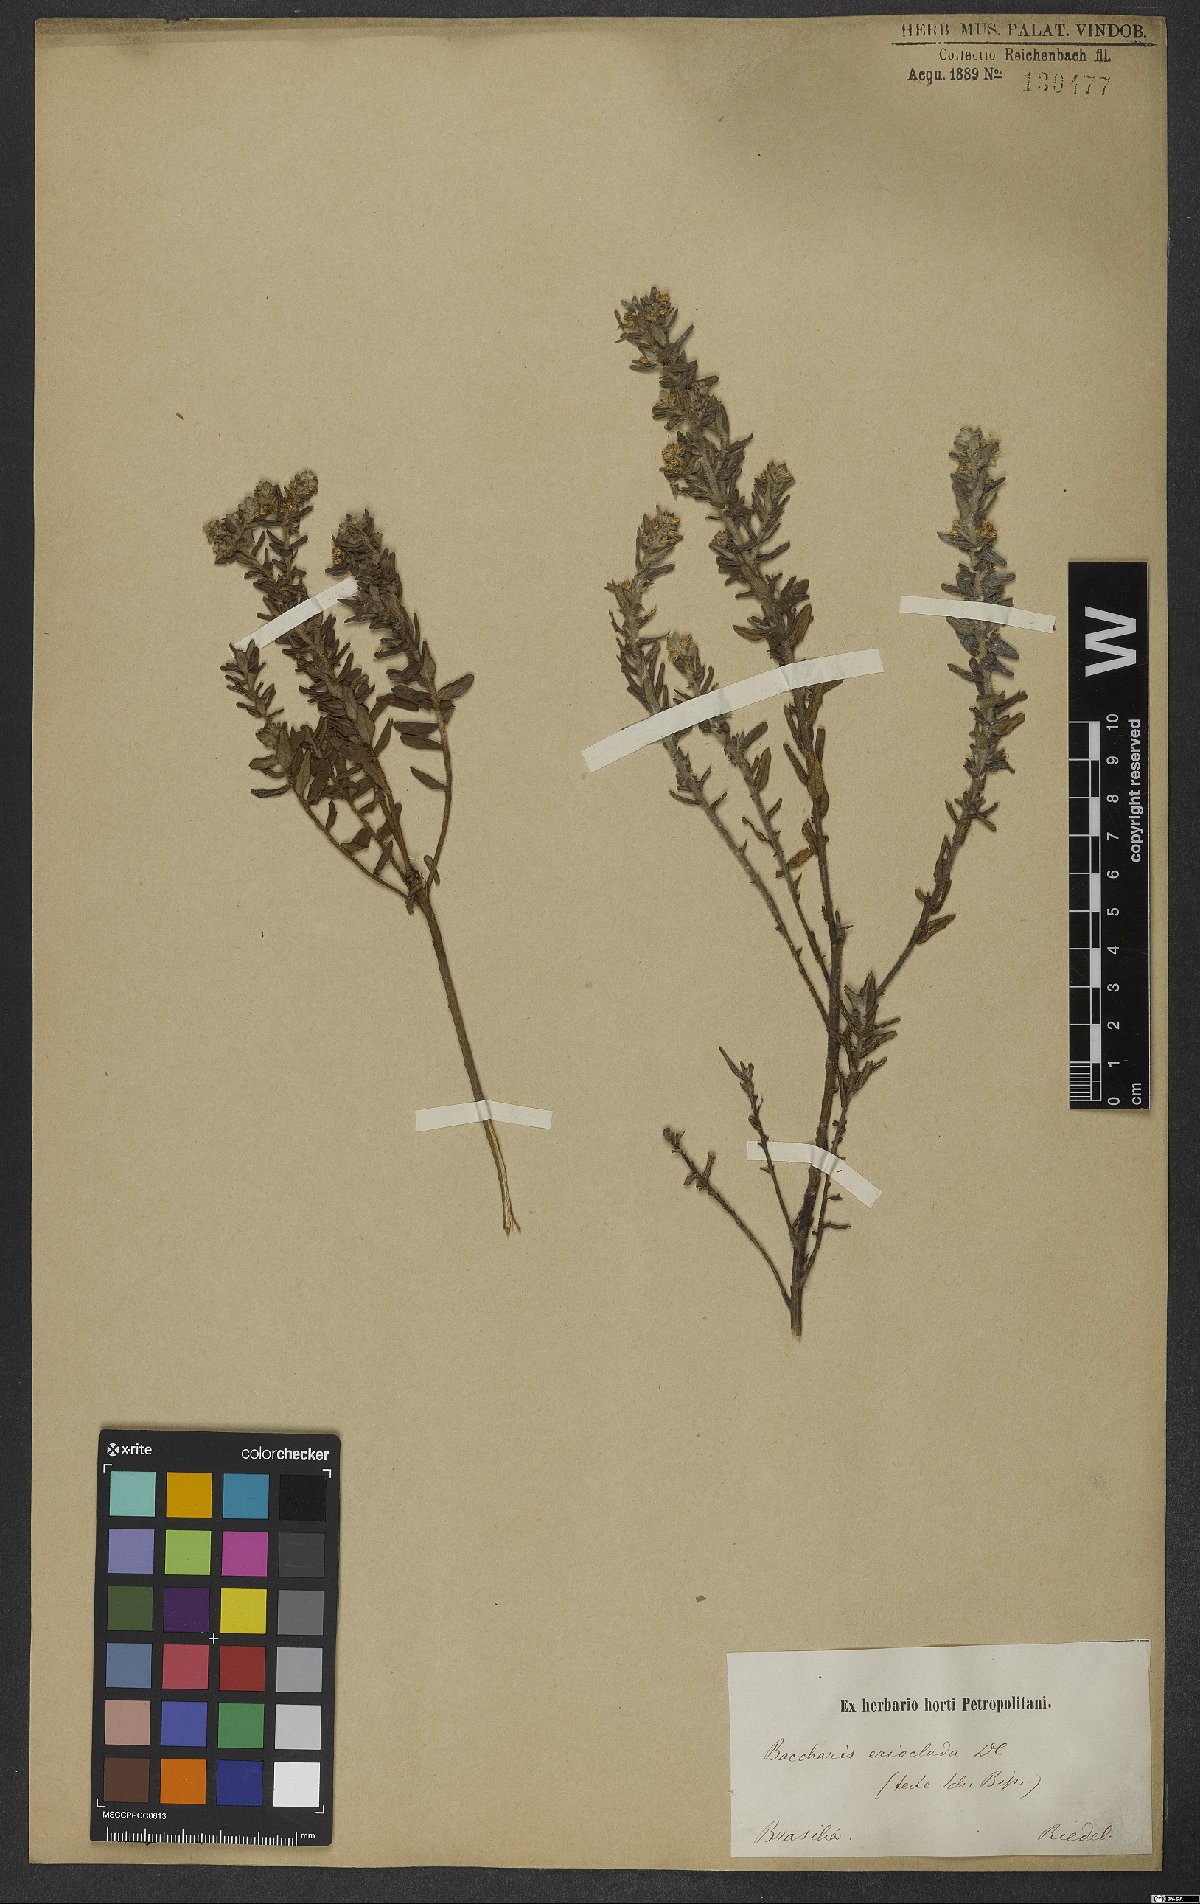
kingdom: Plantae
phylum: Tracheophyta
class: Magnoliopsida
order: Asterales
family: Asteraceae
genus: Baccharis
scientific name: Baccharis erioclada
